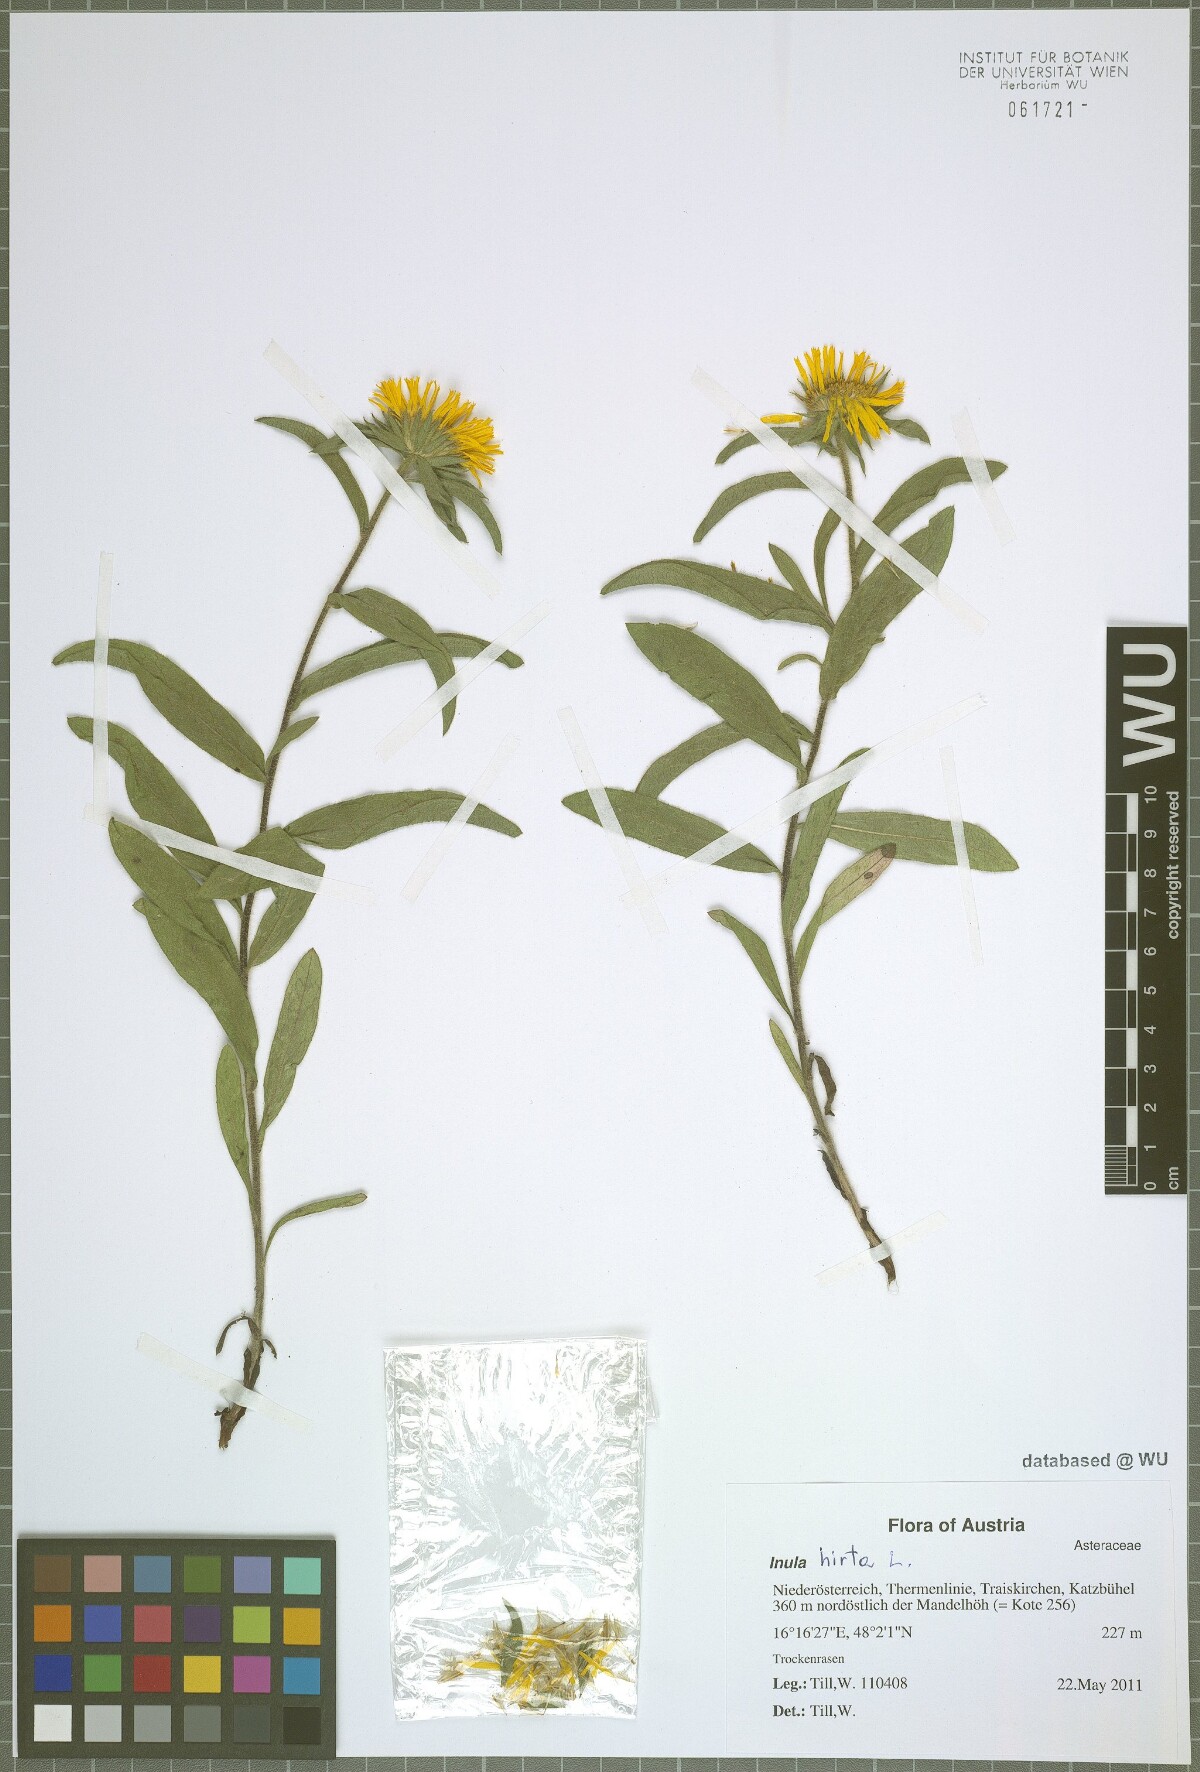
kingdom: Plantae
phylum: Tracheophyta
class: Magnoliopsida
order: Asterales
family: Asteraceae
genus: Pentanema
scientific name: Pentanema hirtum
